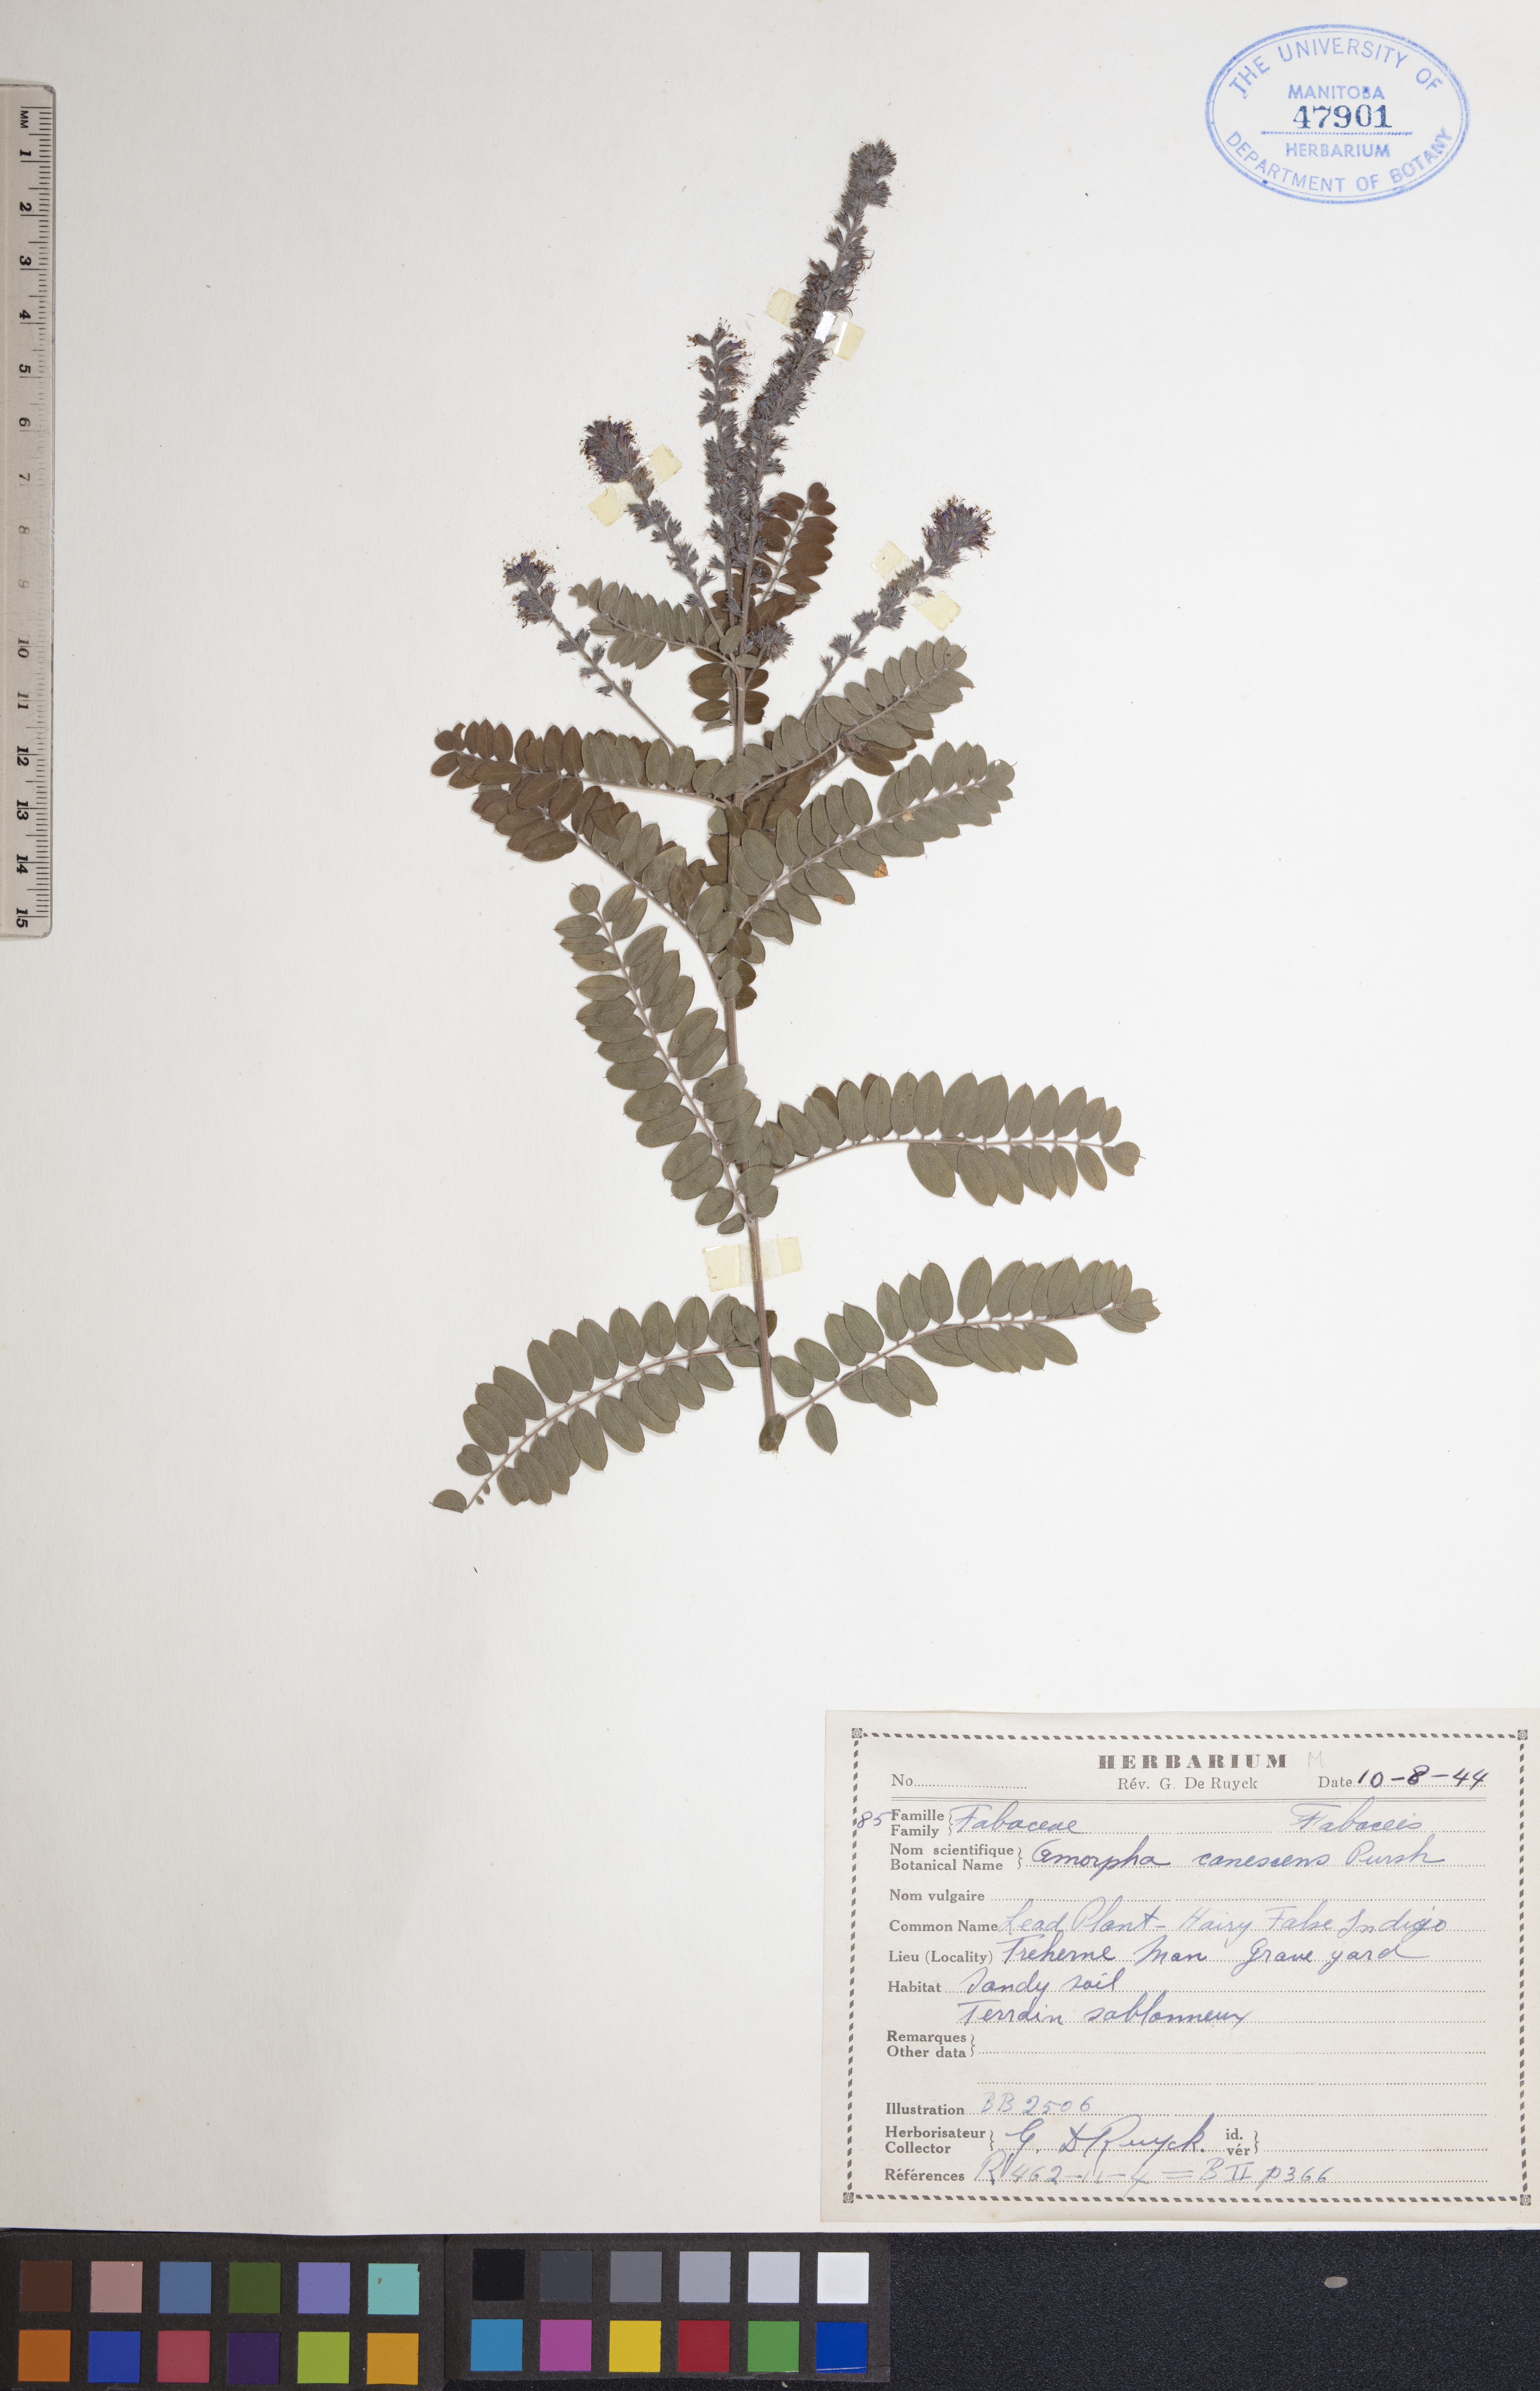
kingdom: Plantae
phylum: Tracheophyta
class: Magnoliopsida
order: Fabales
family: Fabaceae
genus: Amorpha
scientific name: Amorpha canescens
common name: Leadplant
